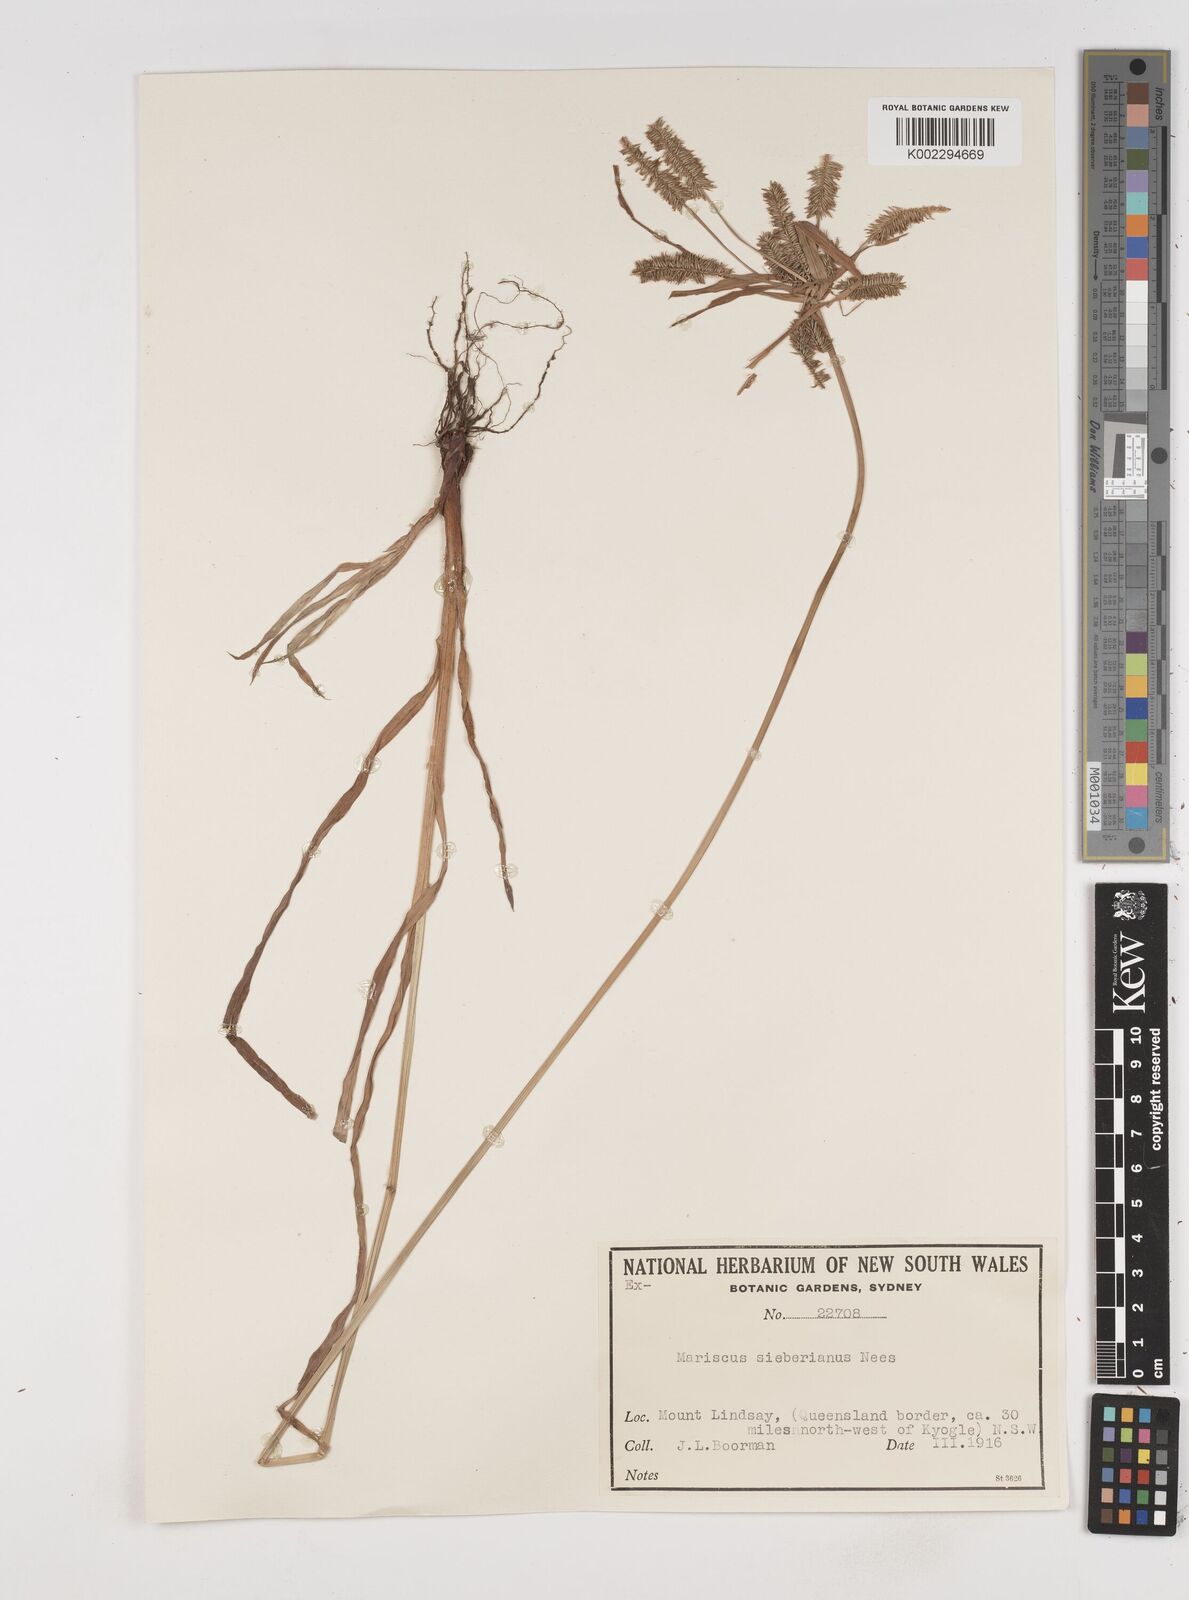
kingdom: Plantae
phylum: Tracheophyta
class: Liliopsida
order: Poales
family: Cyperaceae
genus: Cyperus
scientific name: Cyperus cyperoides
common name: Pacific island flat sedge
